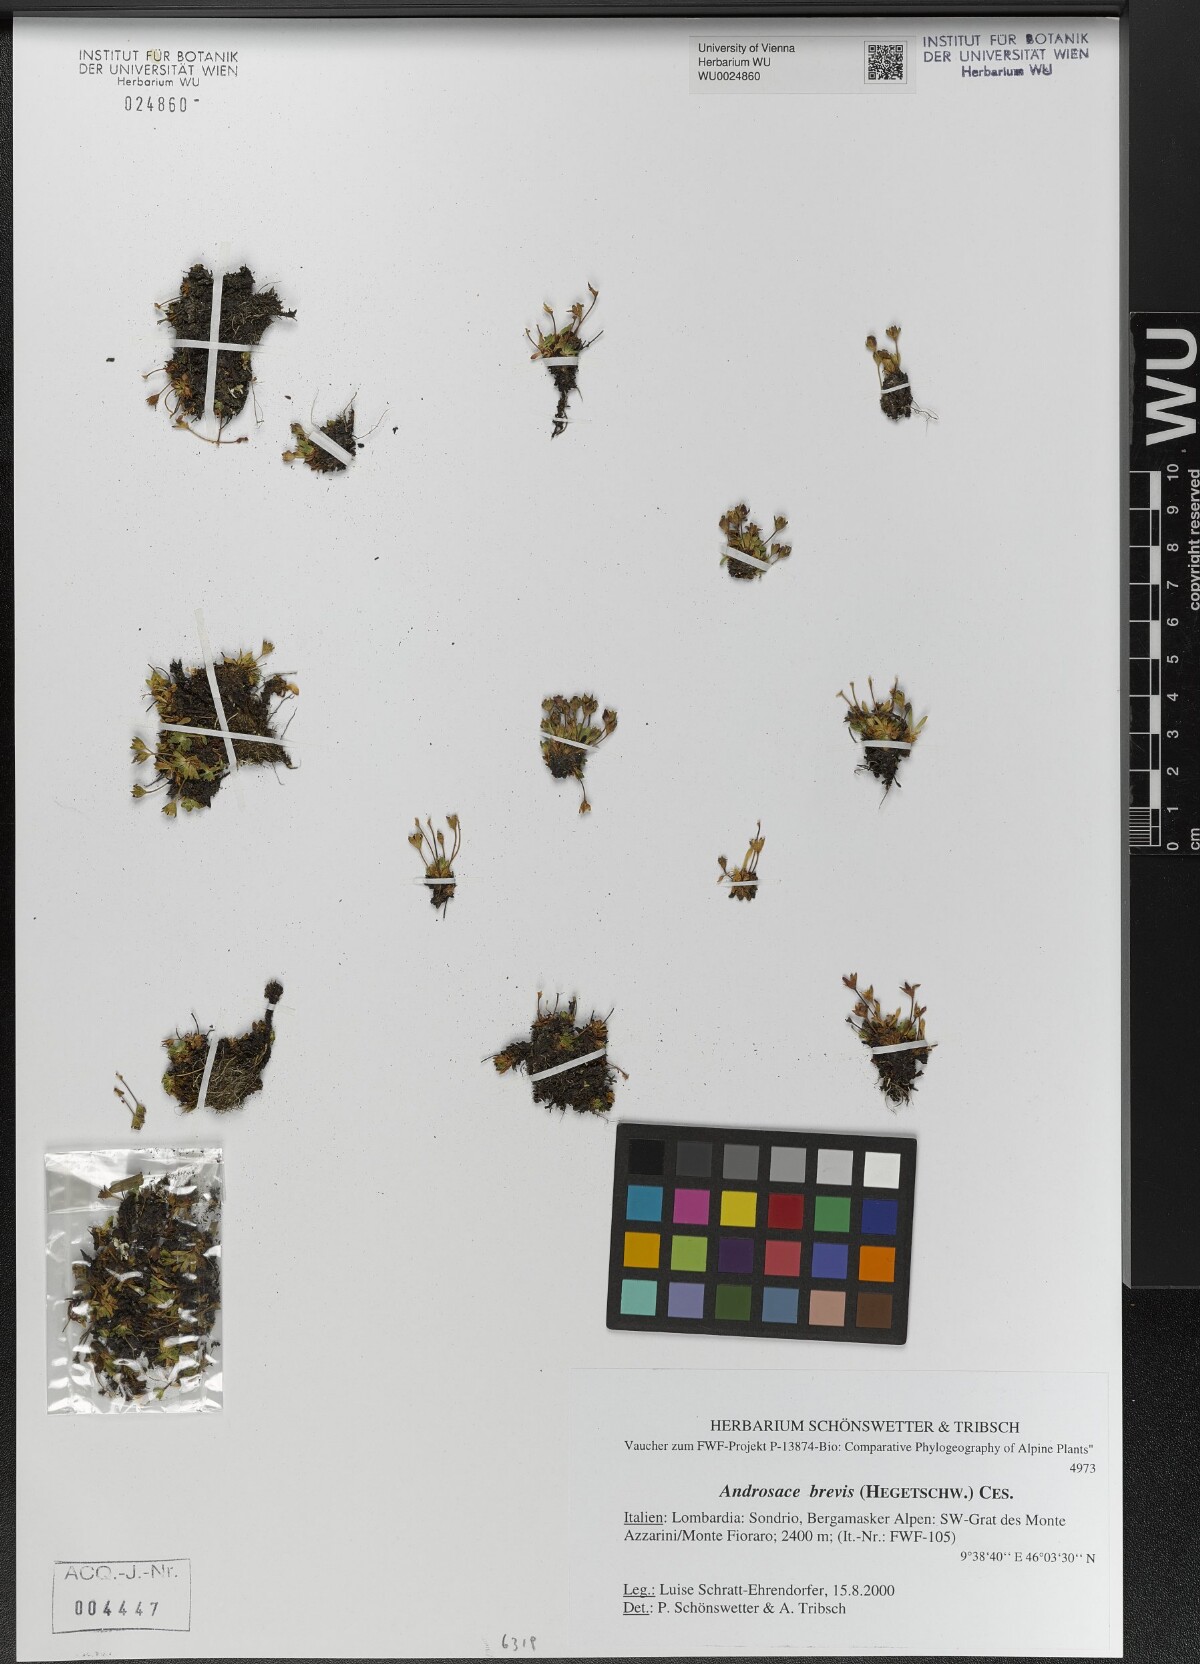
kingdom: Plantae
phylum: Tracheophyta
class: Magnoliopsida
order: Ericales
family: Primulaceae
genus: Androsace
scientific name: Androsace brevis
